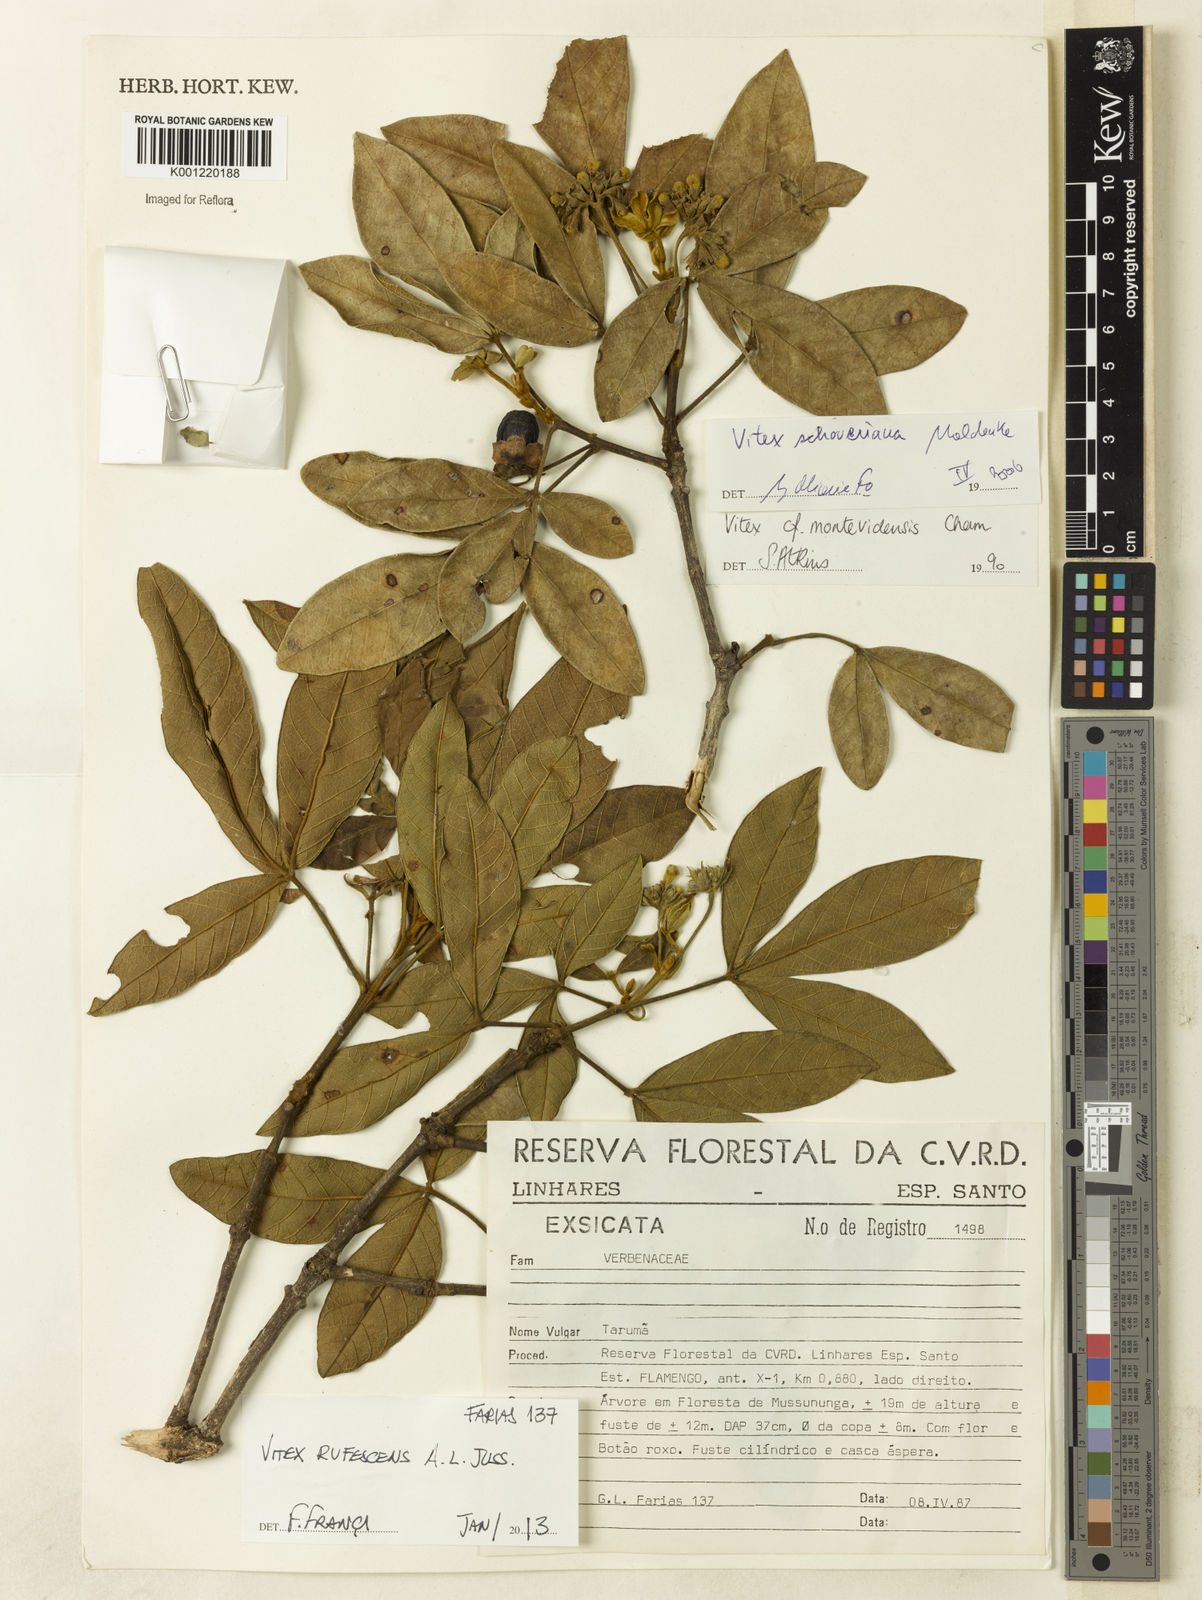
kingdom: Plantae
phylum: Tracheophyta
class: Magnoliopsida
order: Lamiales
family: Lamiaceae
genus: Vitex
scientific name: Vitex rufescens
